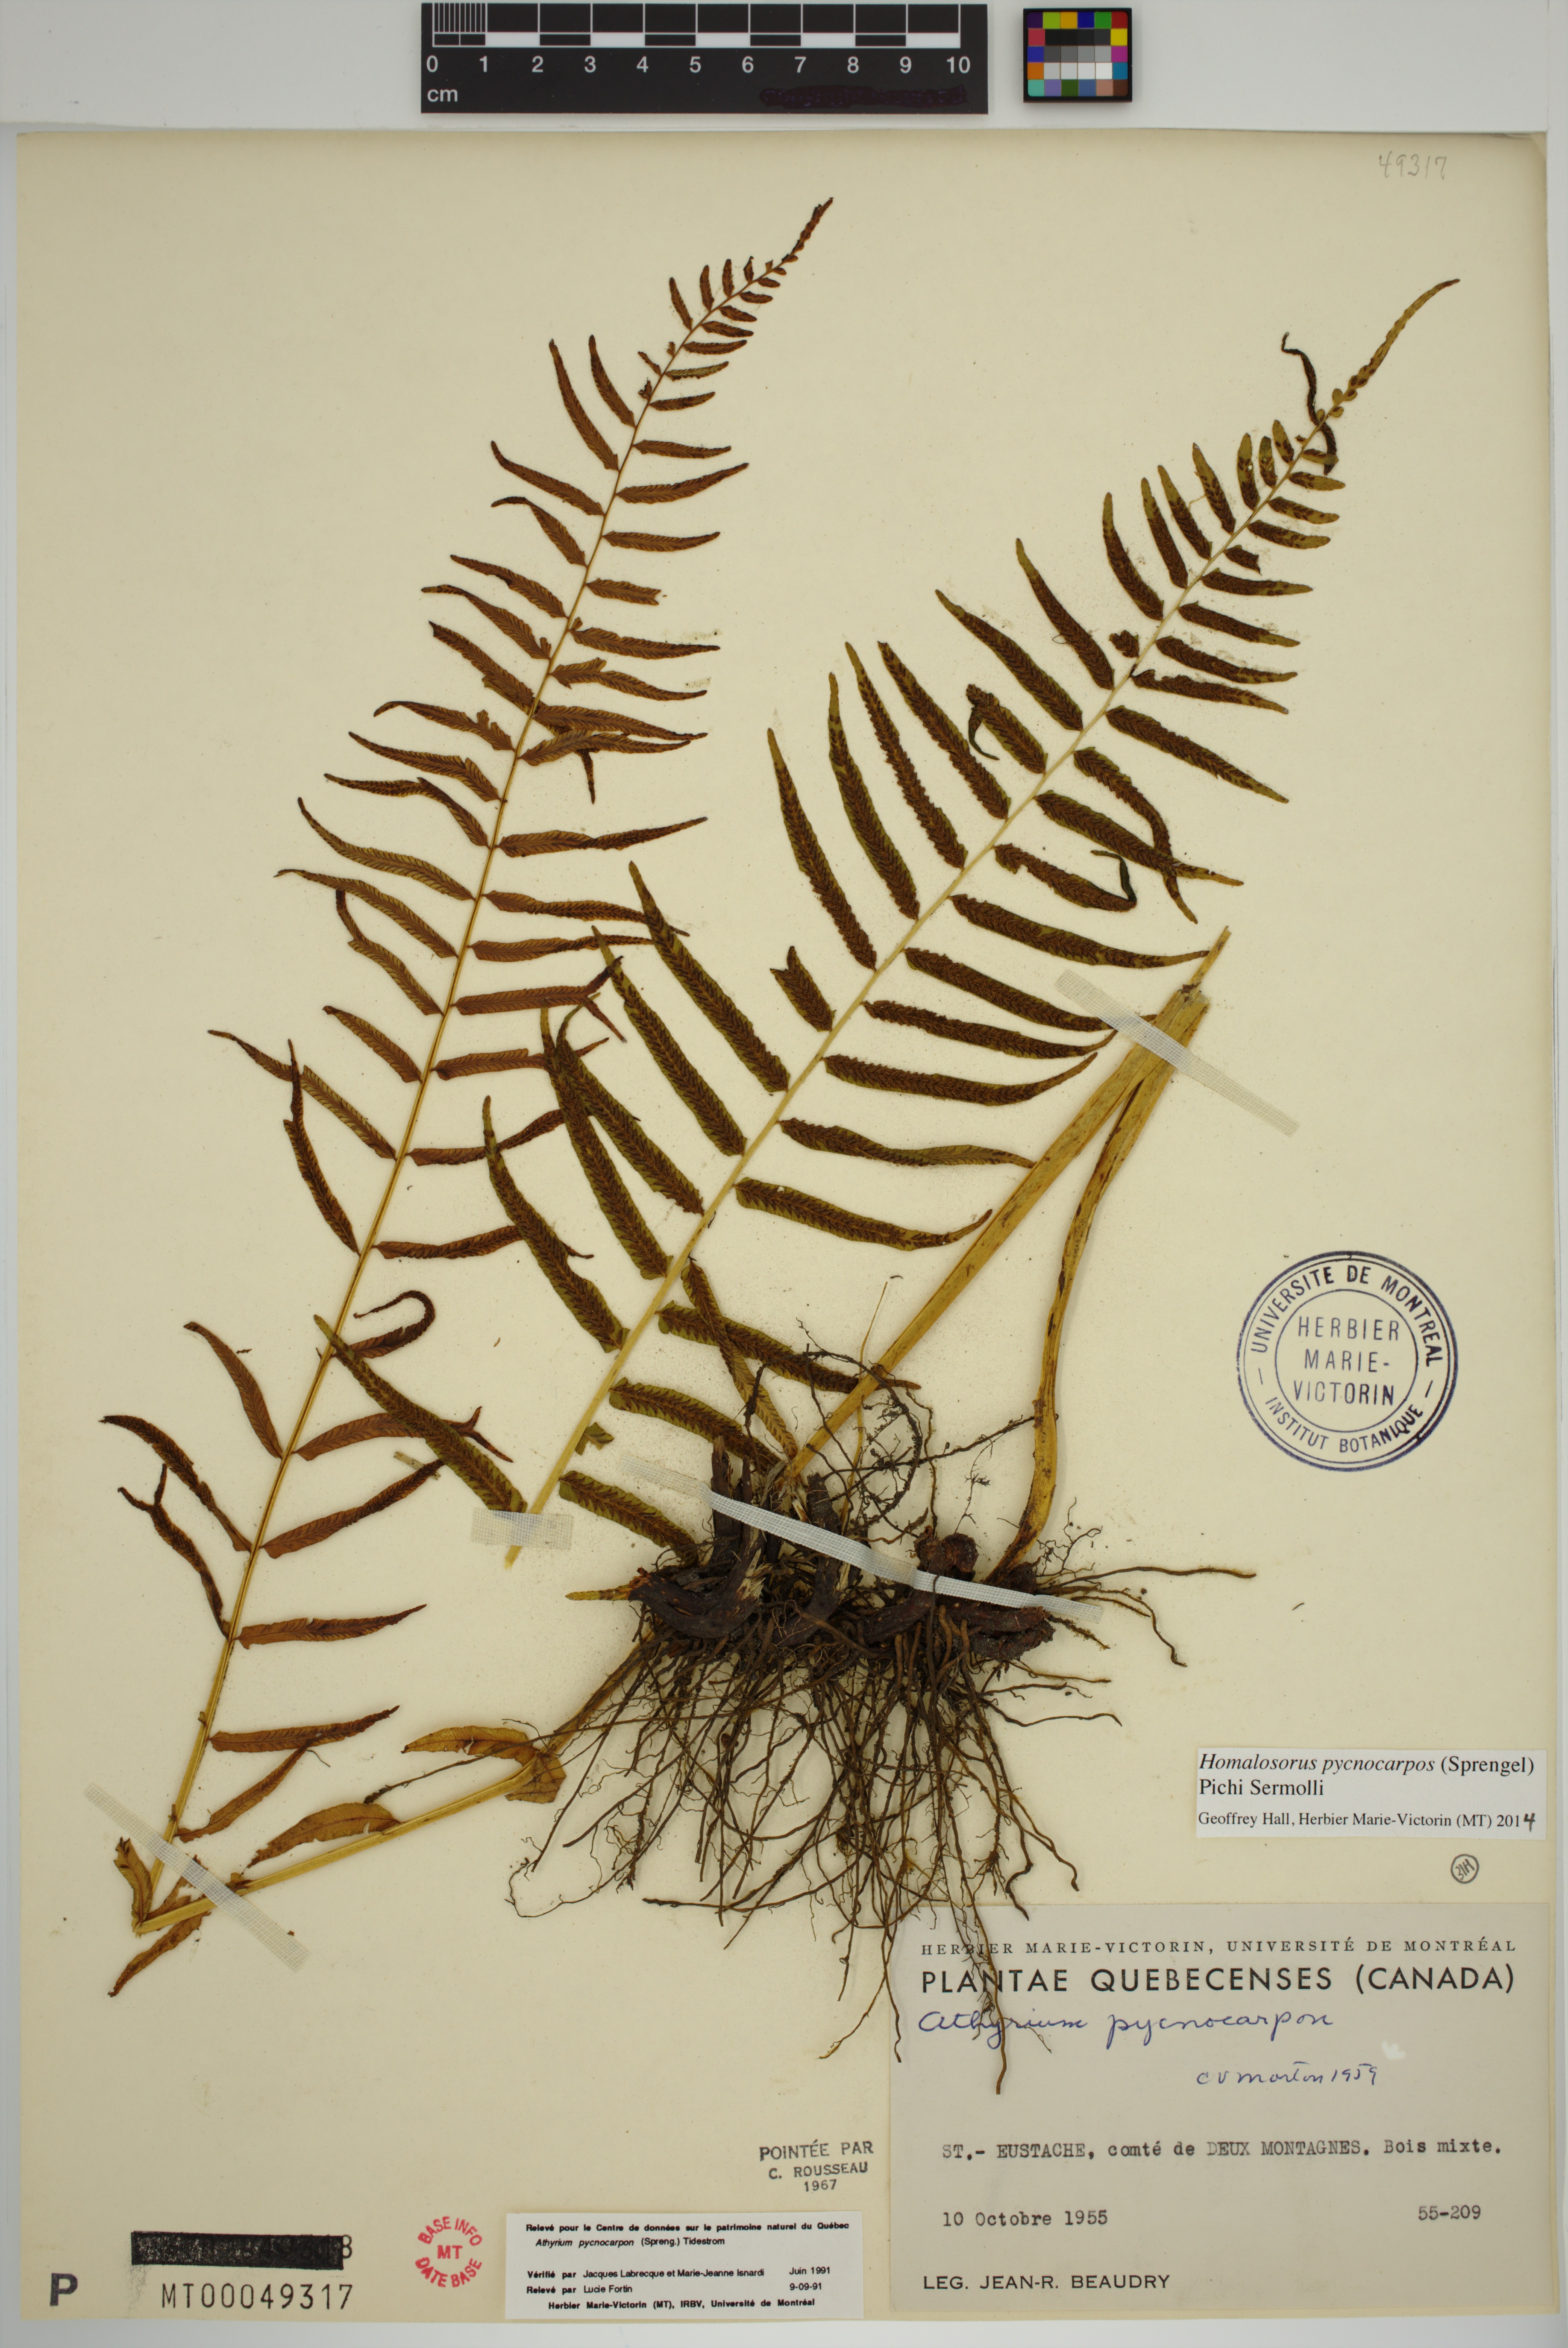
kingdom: Plantae
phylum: Tracheophyta
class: Polypodiopsida
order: Polypodiales
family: Diplaziopsidaceae
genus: Homalosorus
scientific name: Homalosorus pycnocarpos
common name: Glade fern
